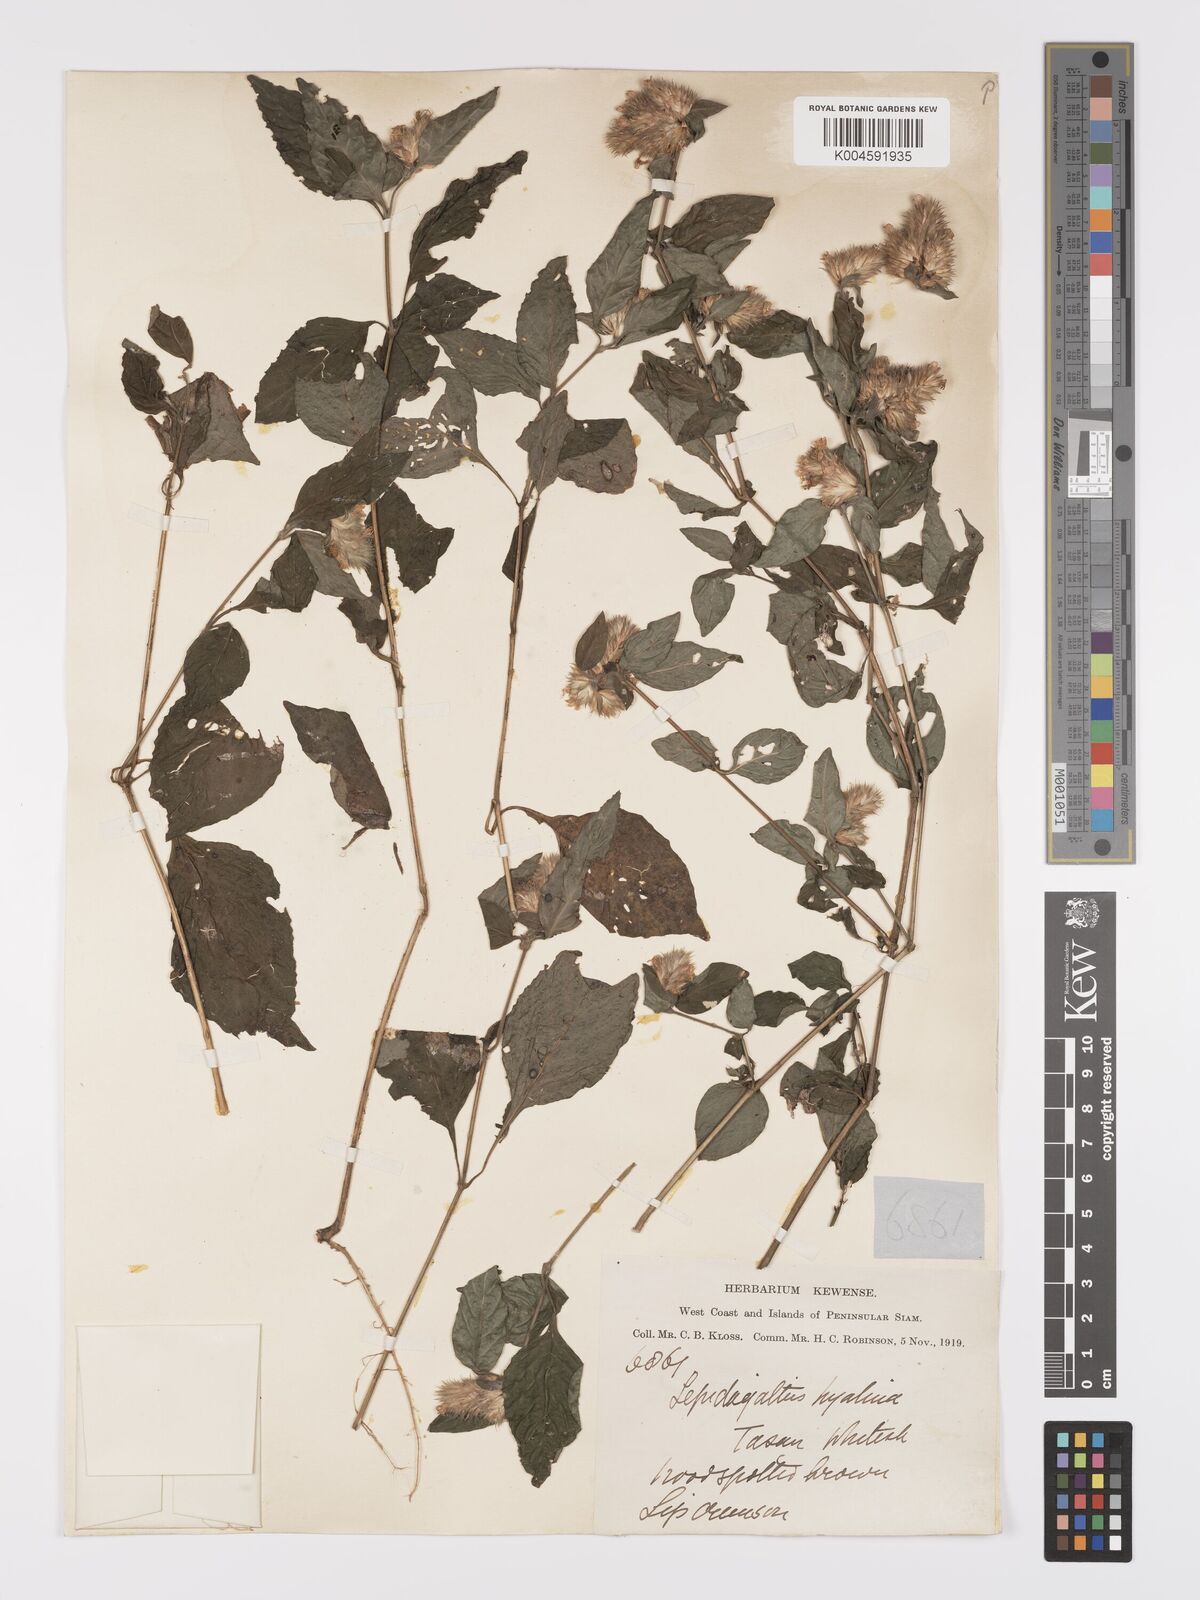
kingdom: Plantae
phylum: Tracheophyta
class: Magnoliopsida
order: Lamiales
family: Acanthaceae
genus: Lepidagathis
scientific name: Lepidagathis incurva
